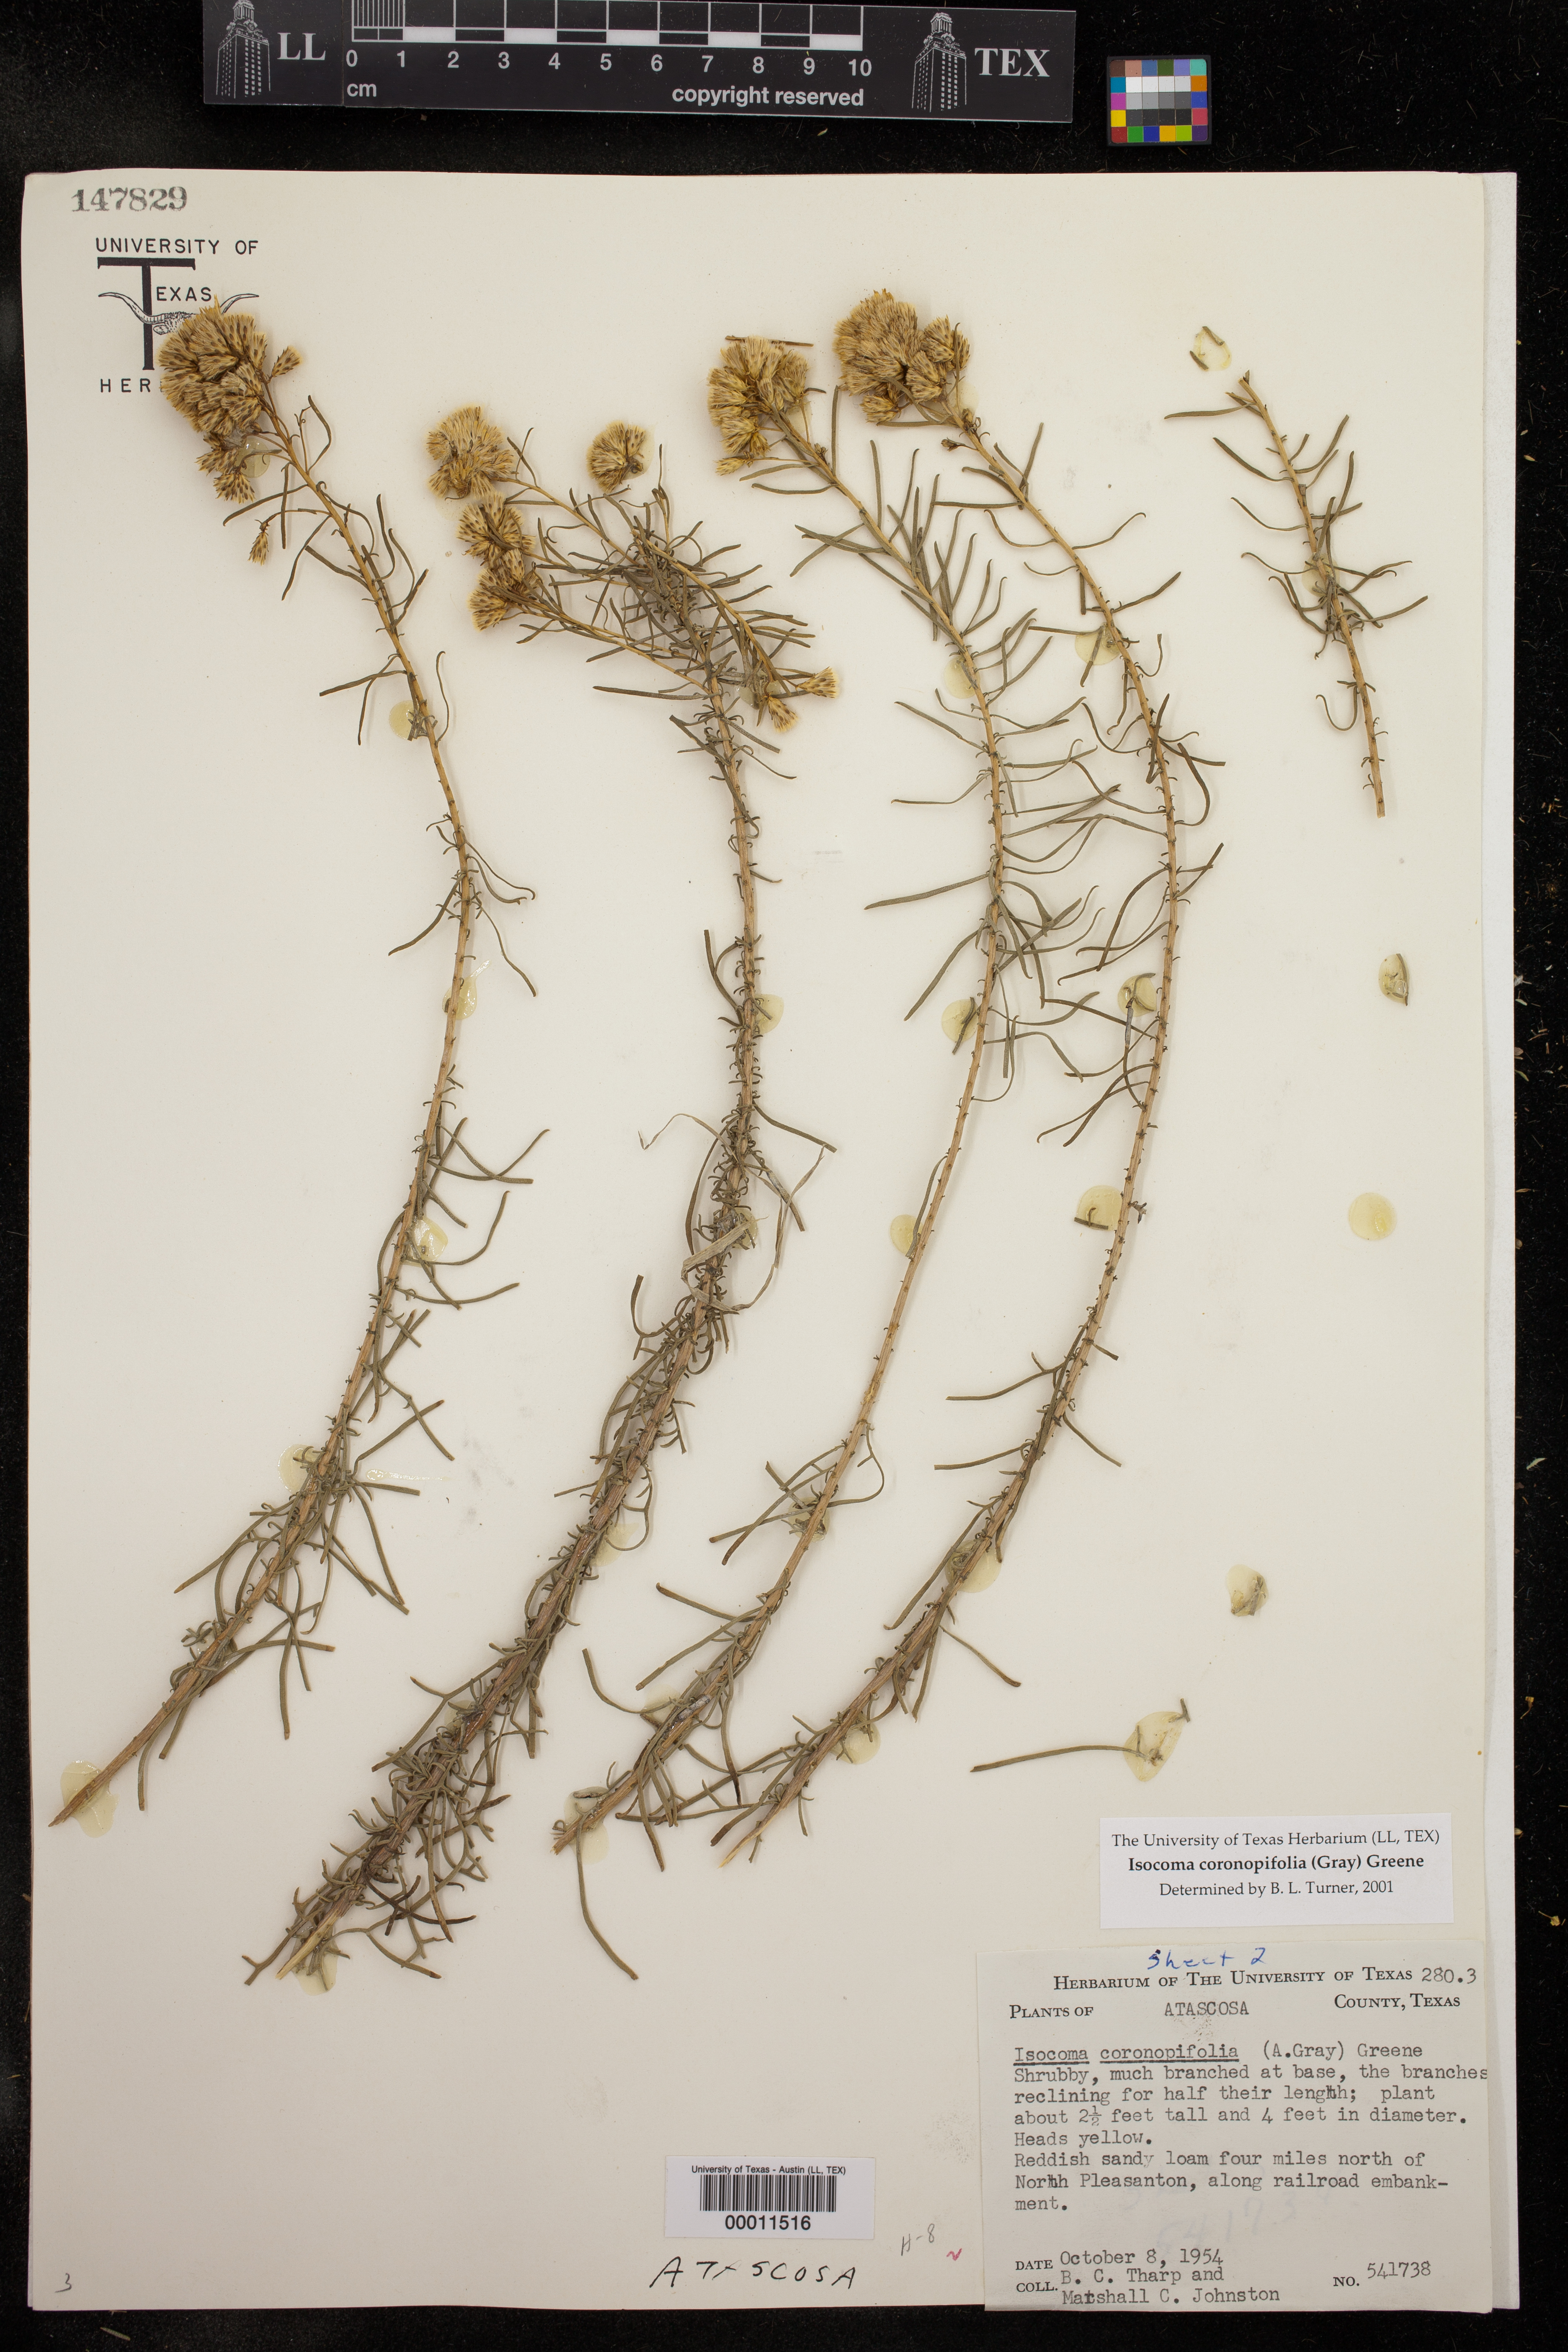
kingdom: Plantae
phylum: Tracheophyta
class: Magnoliopsida
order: Asterales
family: Asteraceae
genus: Isocoma
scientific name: Isocoma coronopifolia
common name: Common jimmyweed
